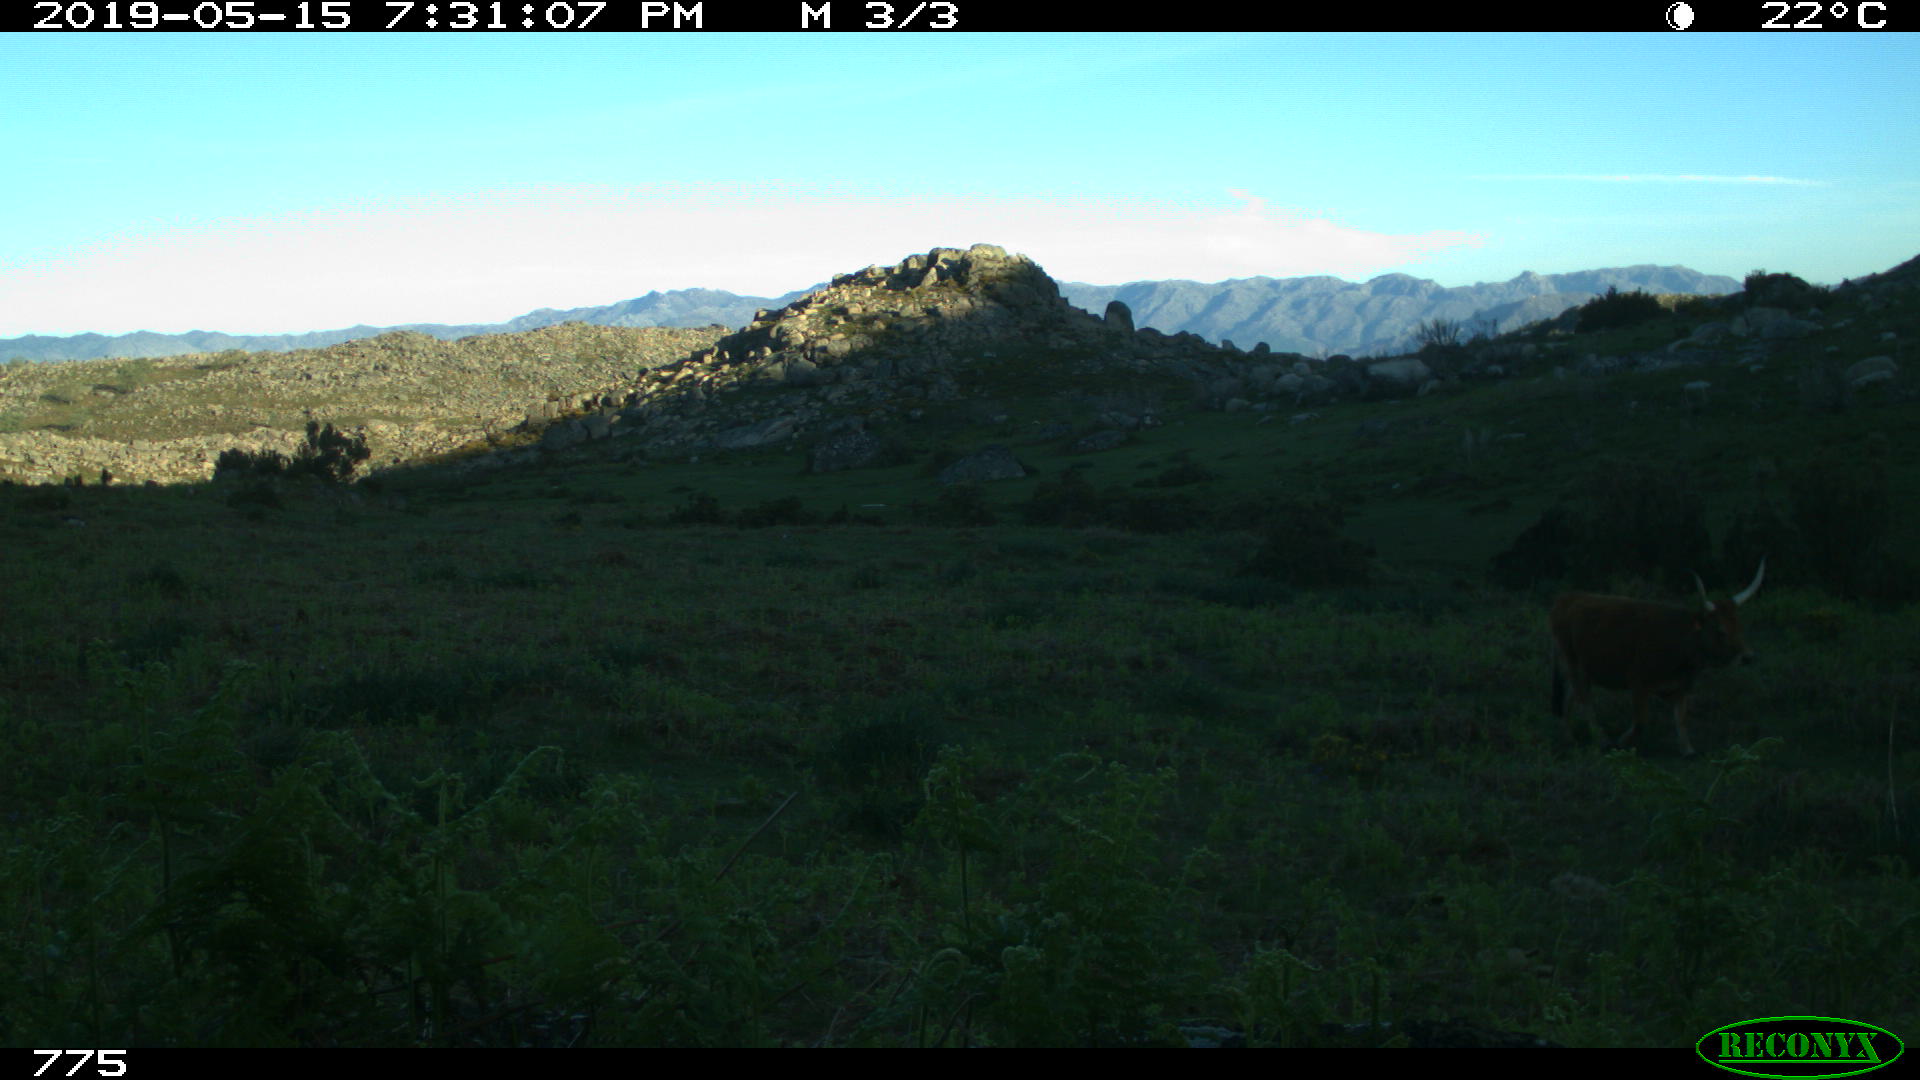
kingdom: Animalia
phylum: Chordata
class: Mammalia
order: Artiodactyla
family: Bovidae
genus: Bos
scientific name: Bos taurus
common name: Domesticated cattle
